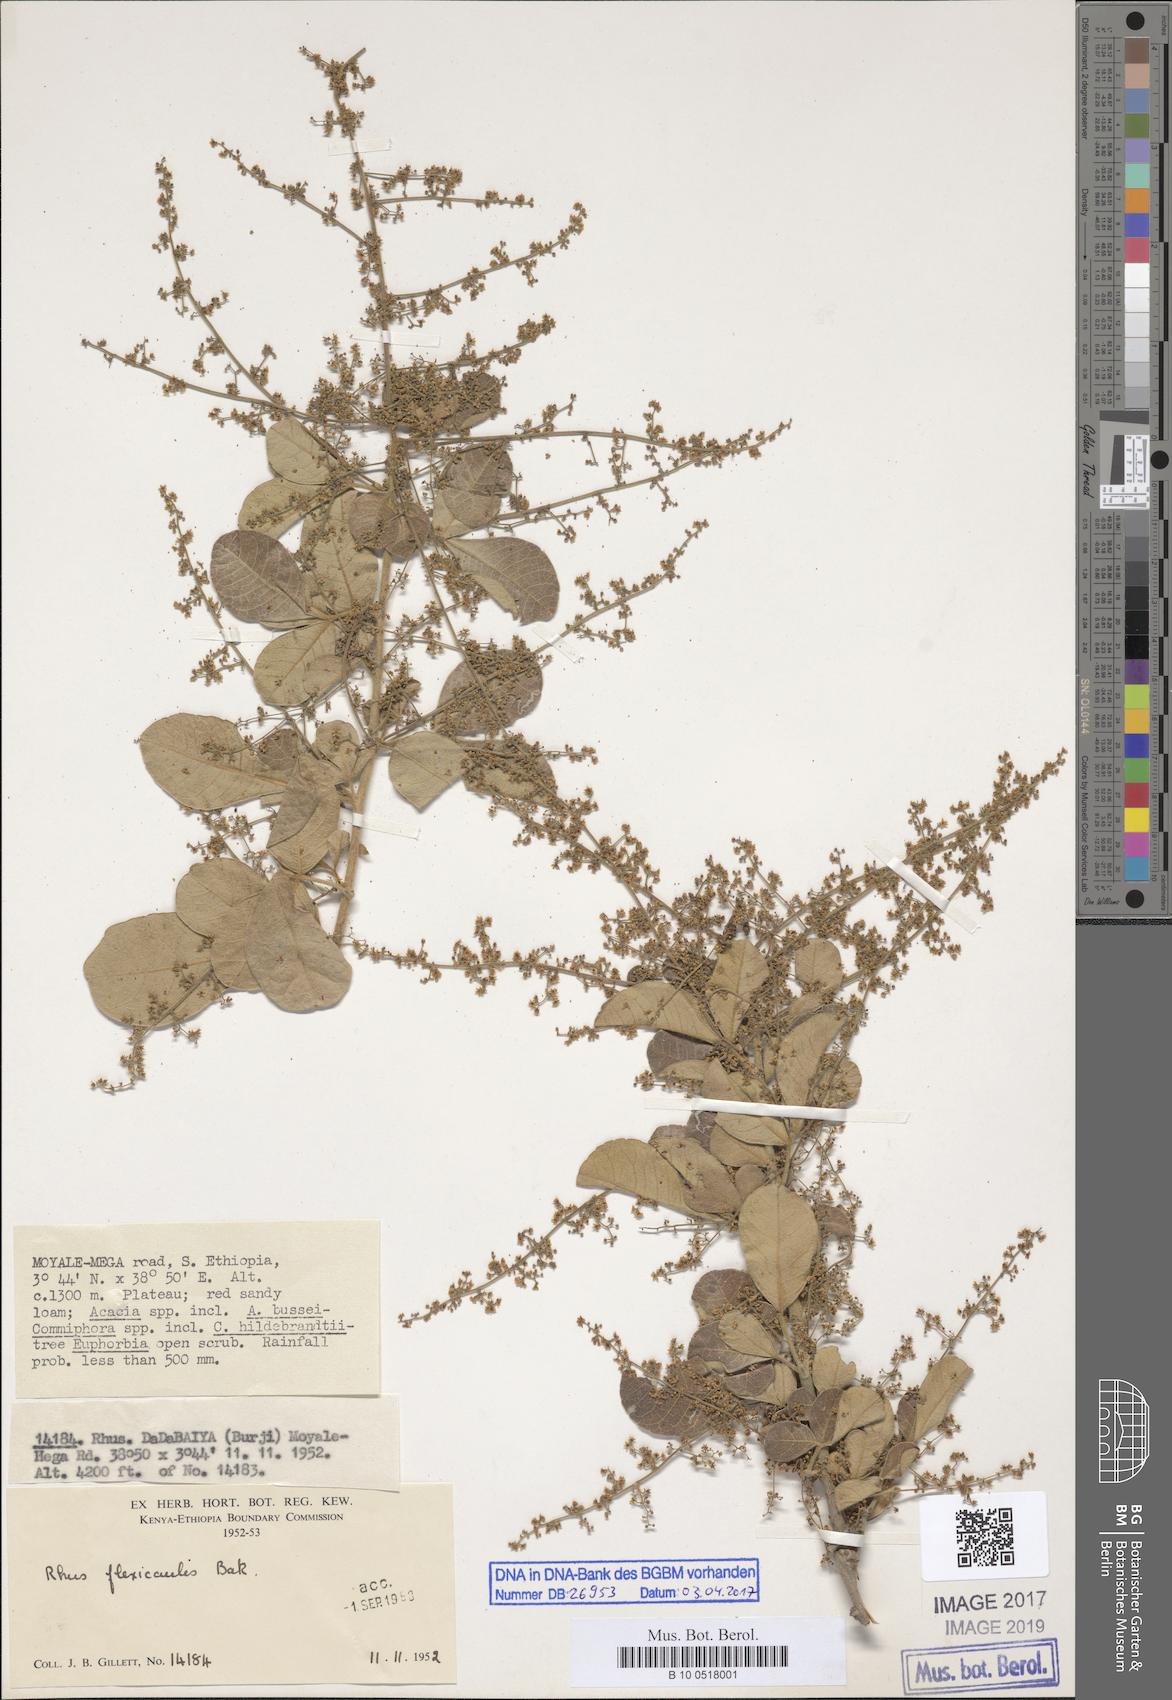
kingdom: Plantae
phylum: Tracheophyta
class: Liliopsida
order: Asparagales
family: Orchidaceae
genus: Psychopsis
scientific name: Psychopsis papilio
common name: Butterfly orchid
